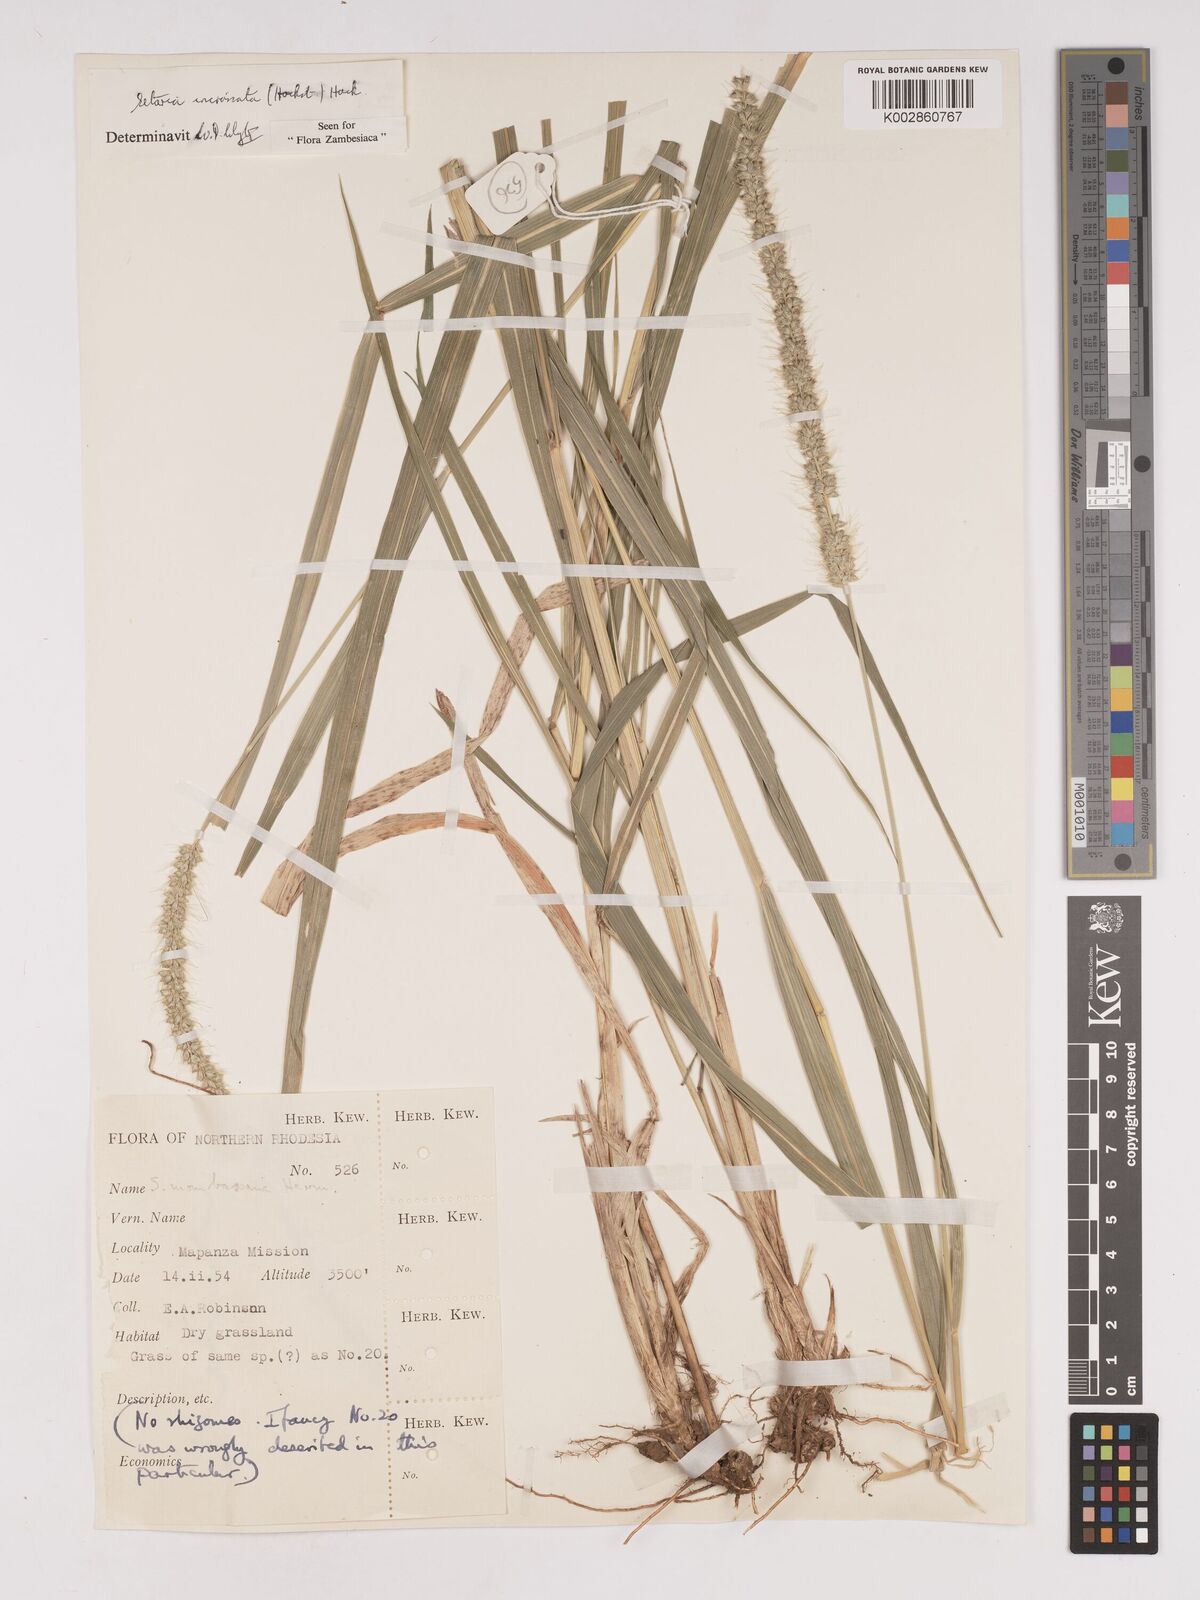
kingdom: Plantae
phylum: Tracheophyta
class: Liliopsida
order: Poales
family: Poaceae
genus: Setaria
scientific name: Setaria incrassata
